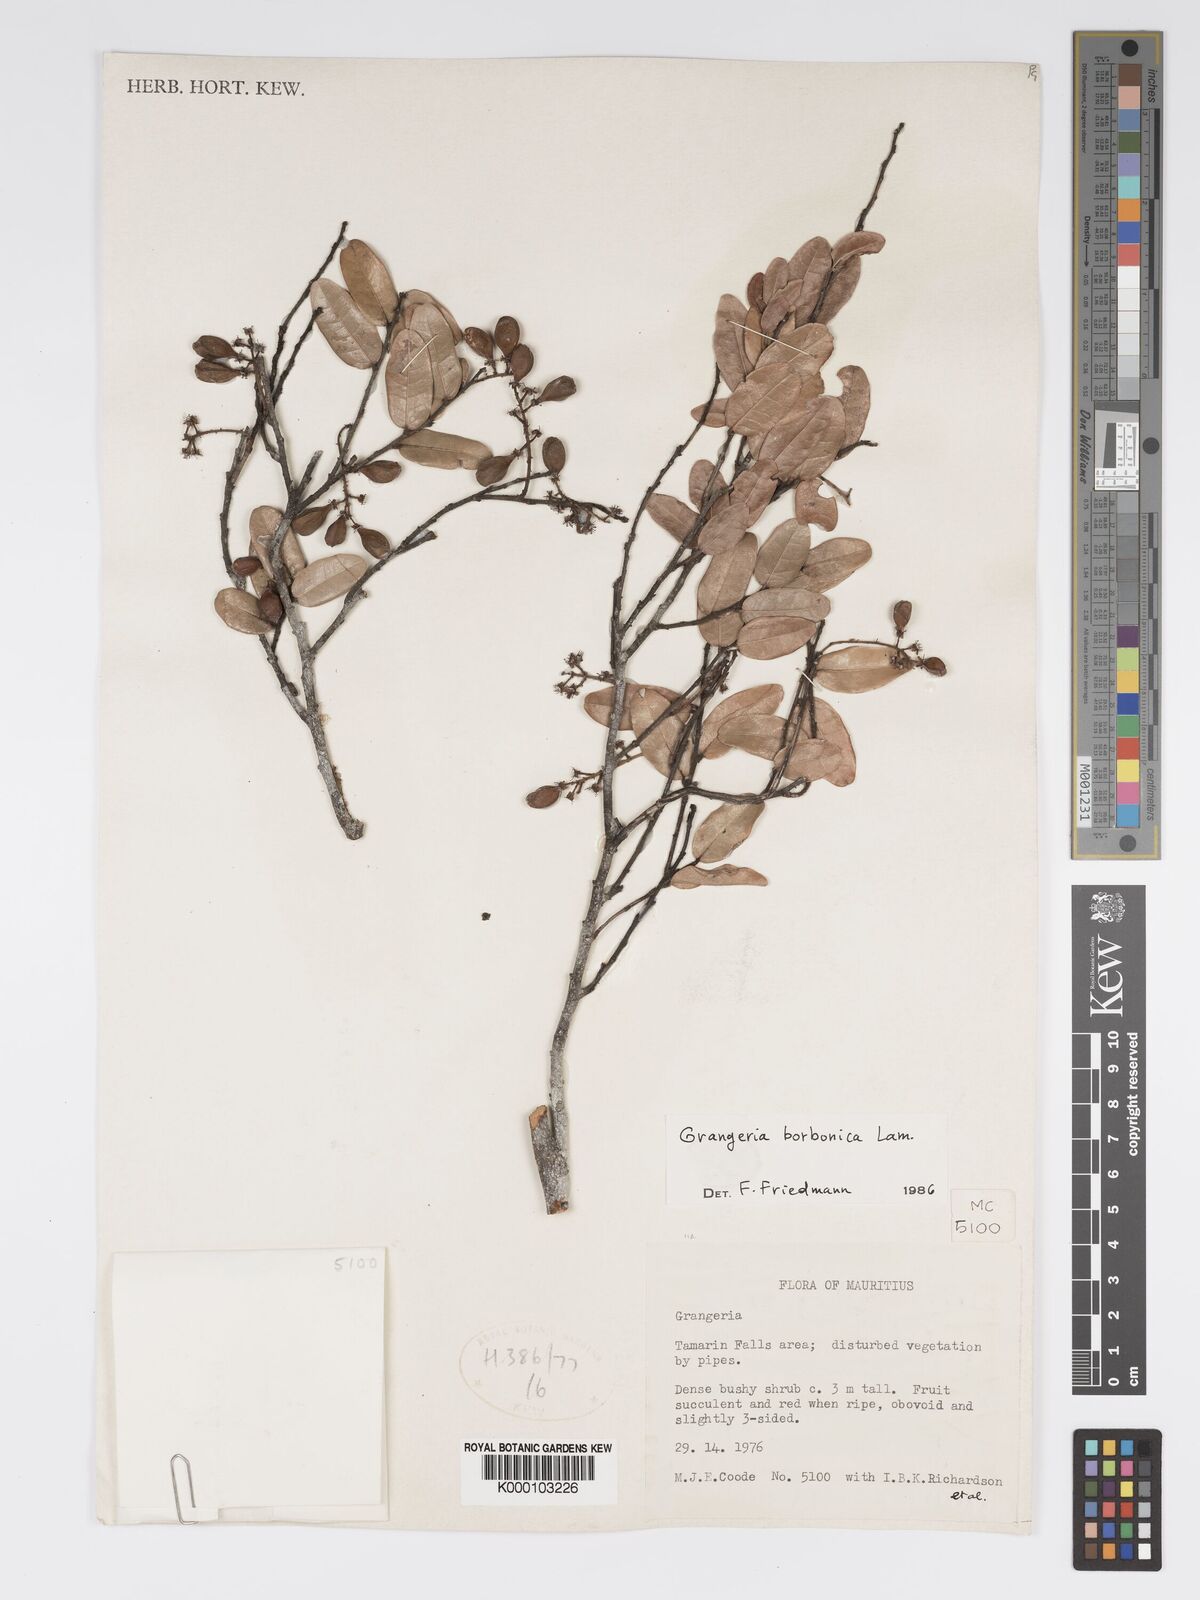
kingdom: Plantae
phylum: Tracheophyta
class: Magnoliopsida
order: Malpighiales
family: Chrysobalanaceae
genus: Grangeria
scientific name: Grangeria borbonica
